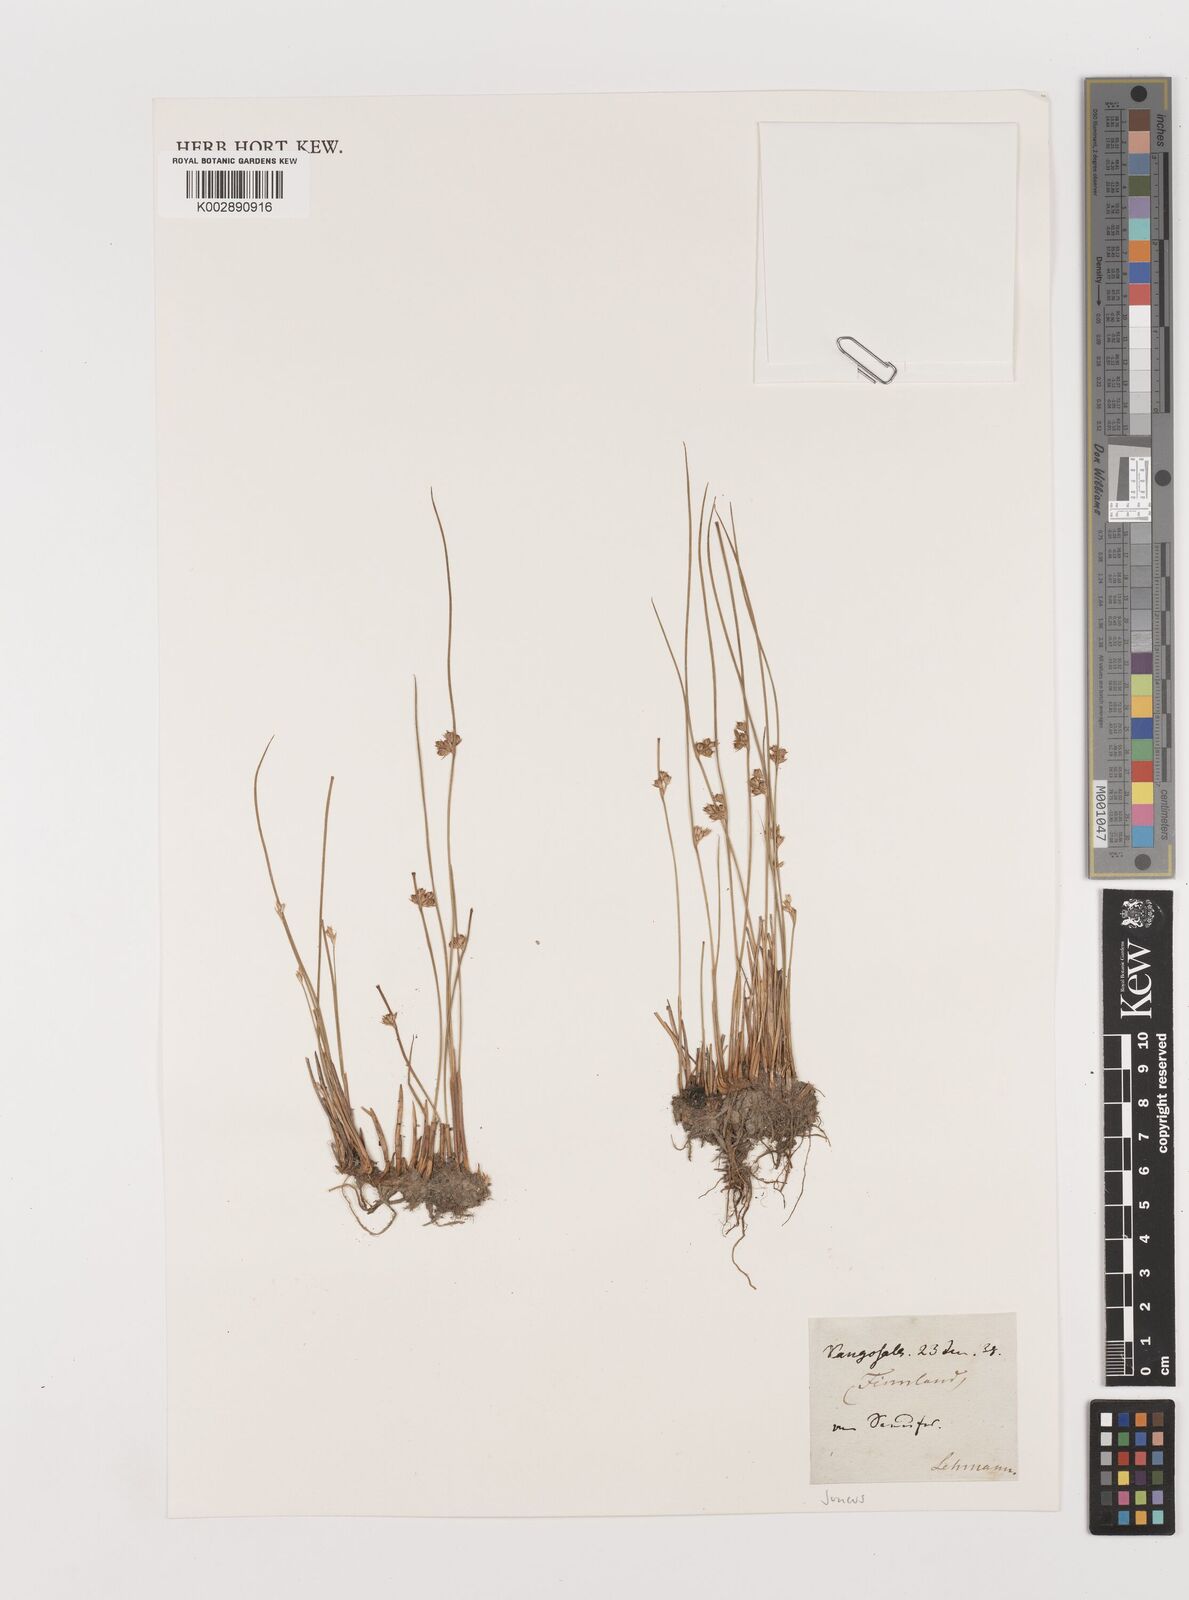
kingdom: Plantae
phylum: Tracheophyta
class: Liliopsida
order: Poales
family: Juncaceae
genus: Juncus
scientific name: Juncus
